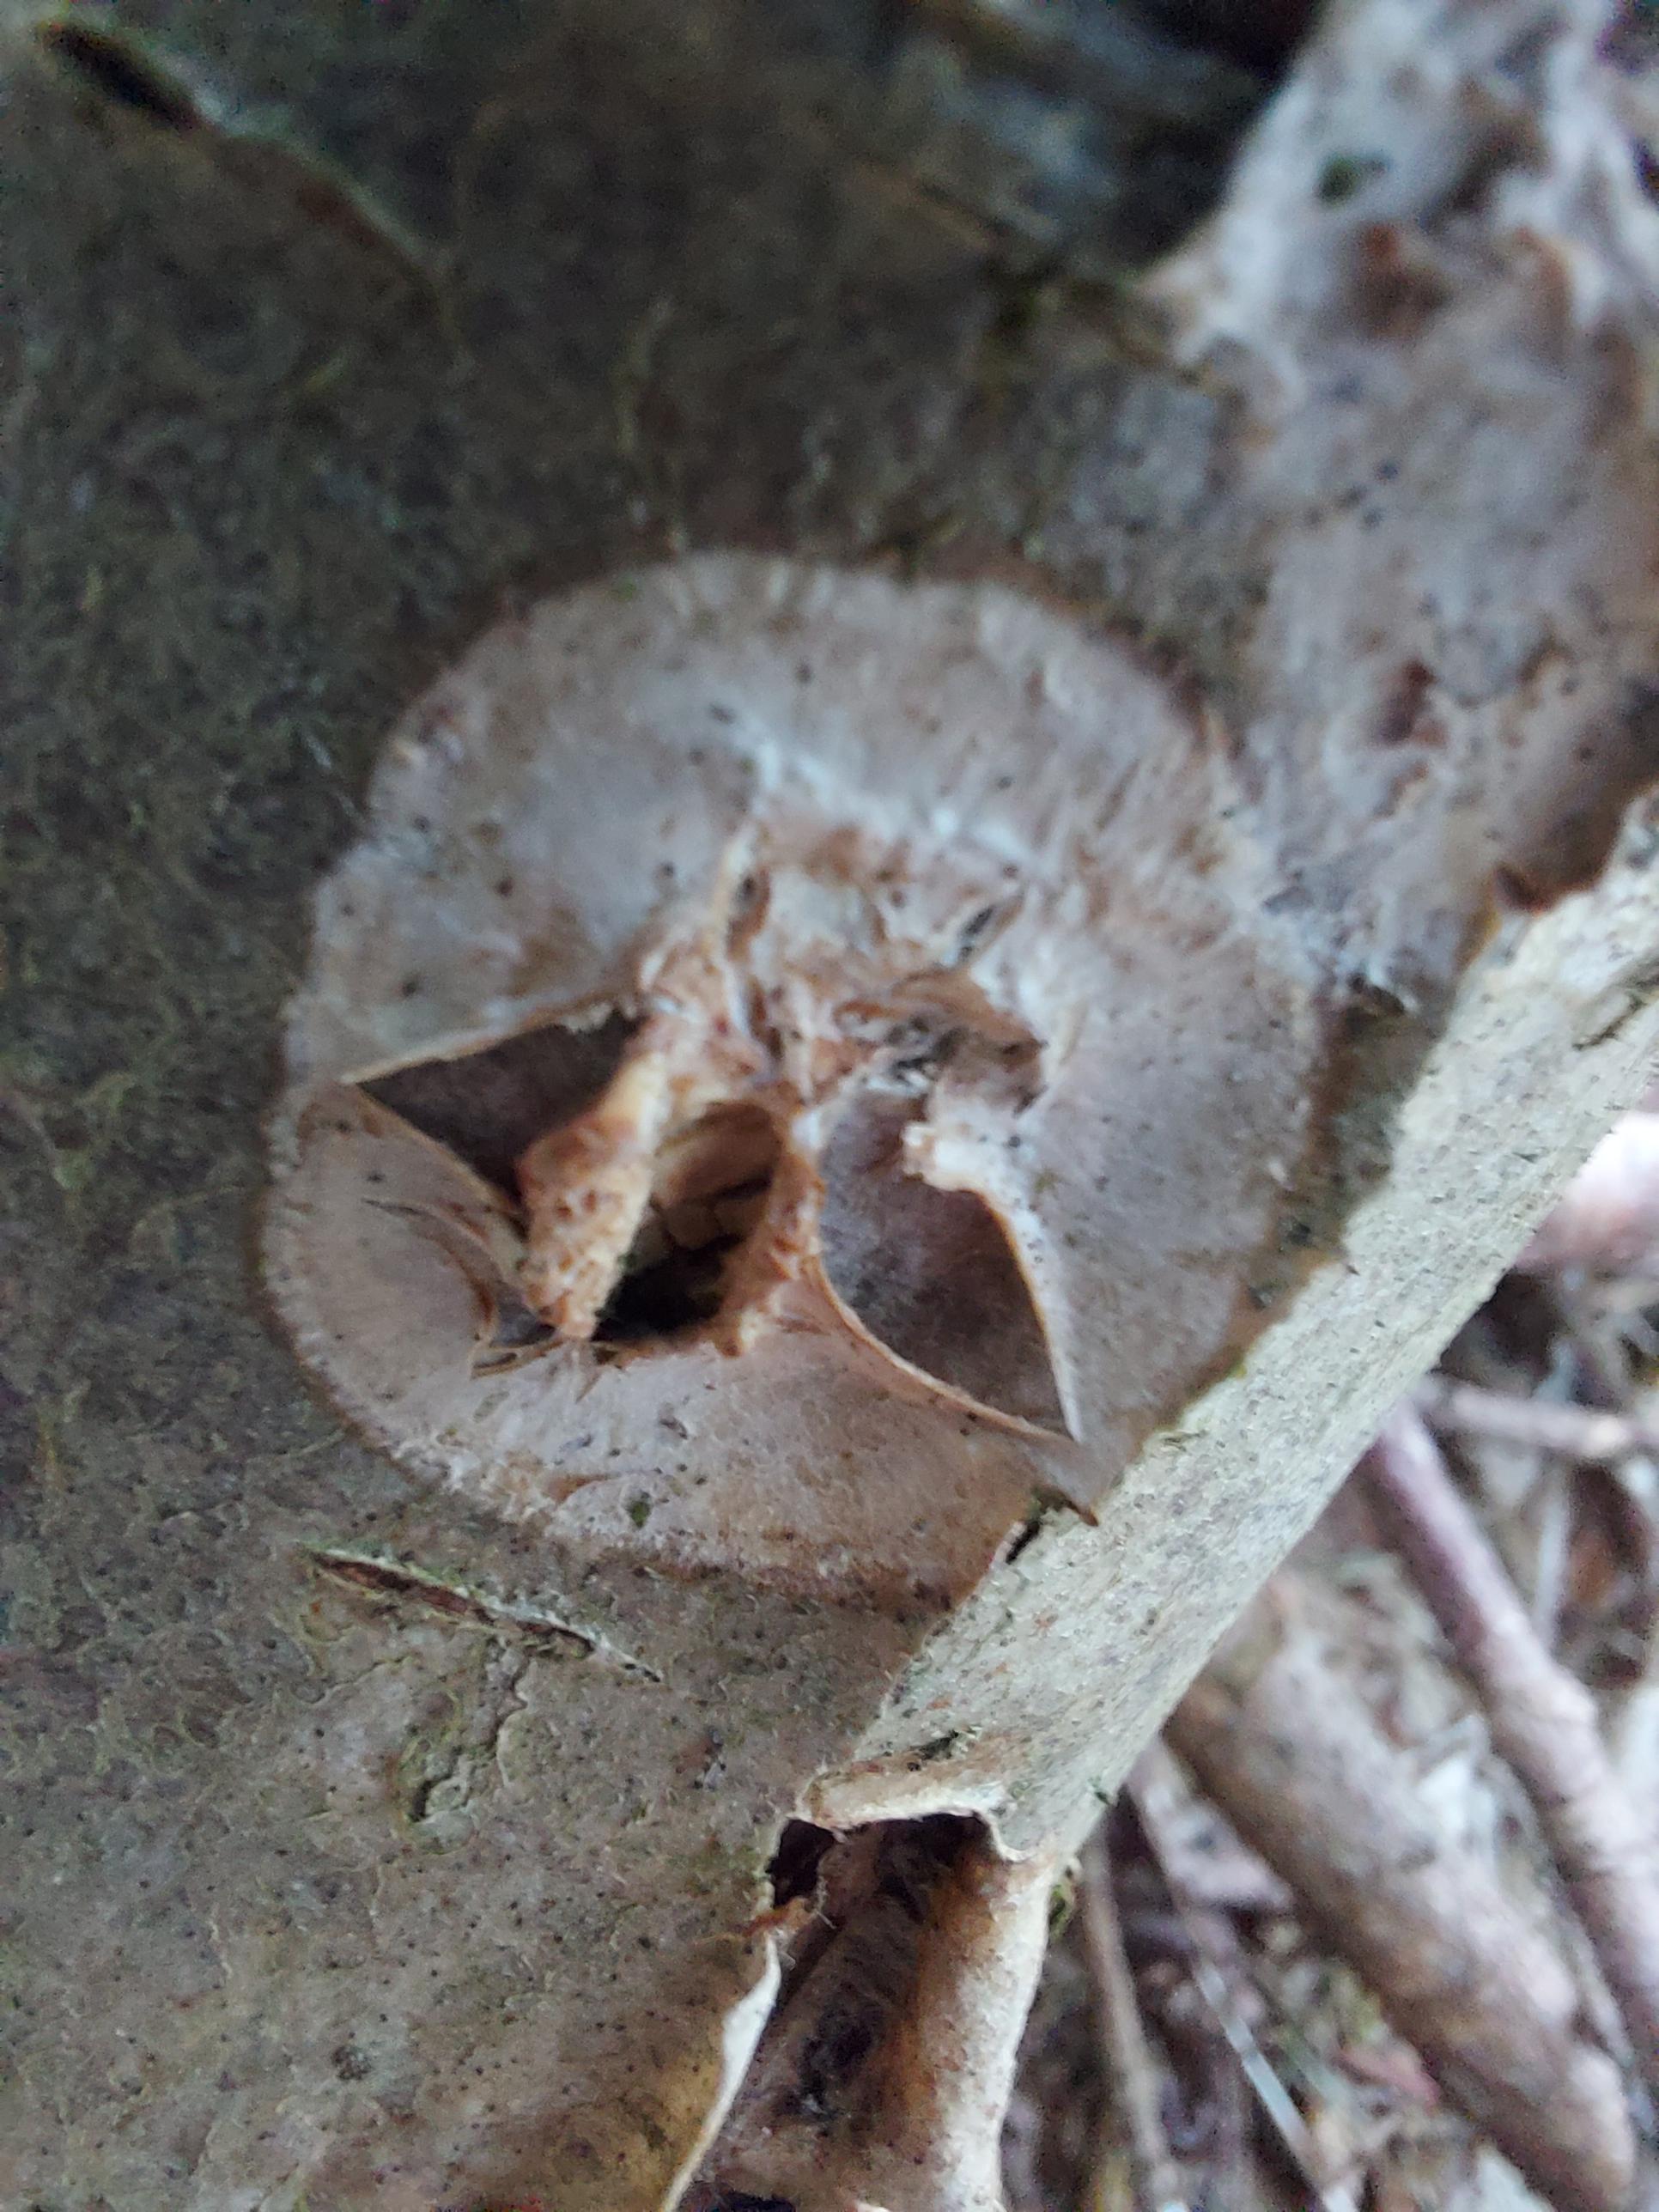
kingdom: Fungi
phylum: Basidiomycota
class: Agaricomycetes
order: Agaricales
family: Physalacriaceae
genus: Cylindrobasidium
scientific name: Cylindrobasidium evolvens
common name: sprækkehinde
